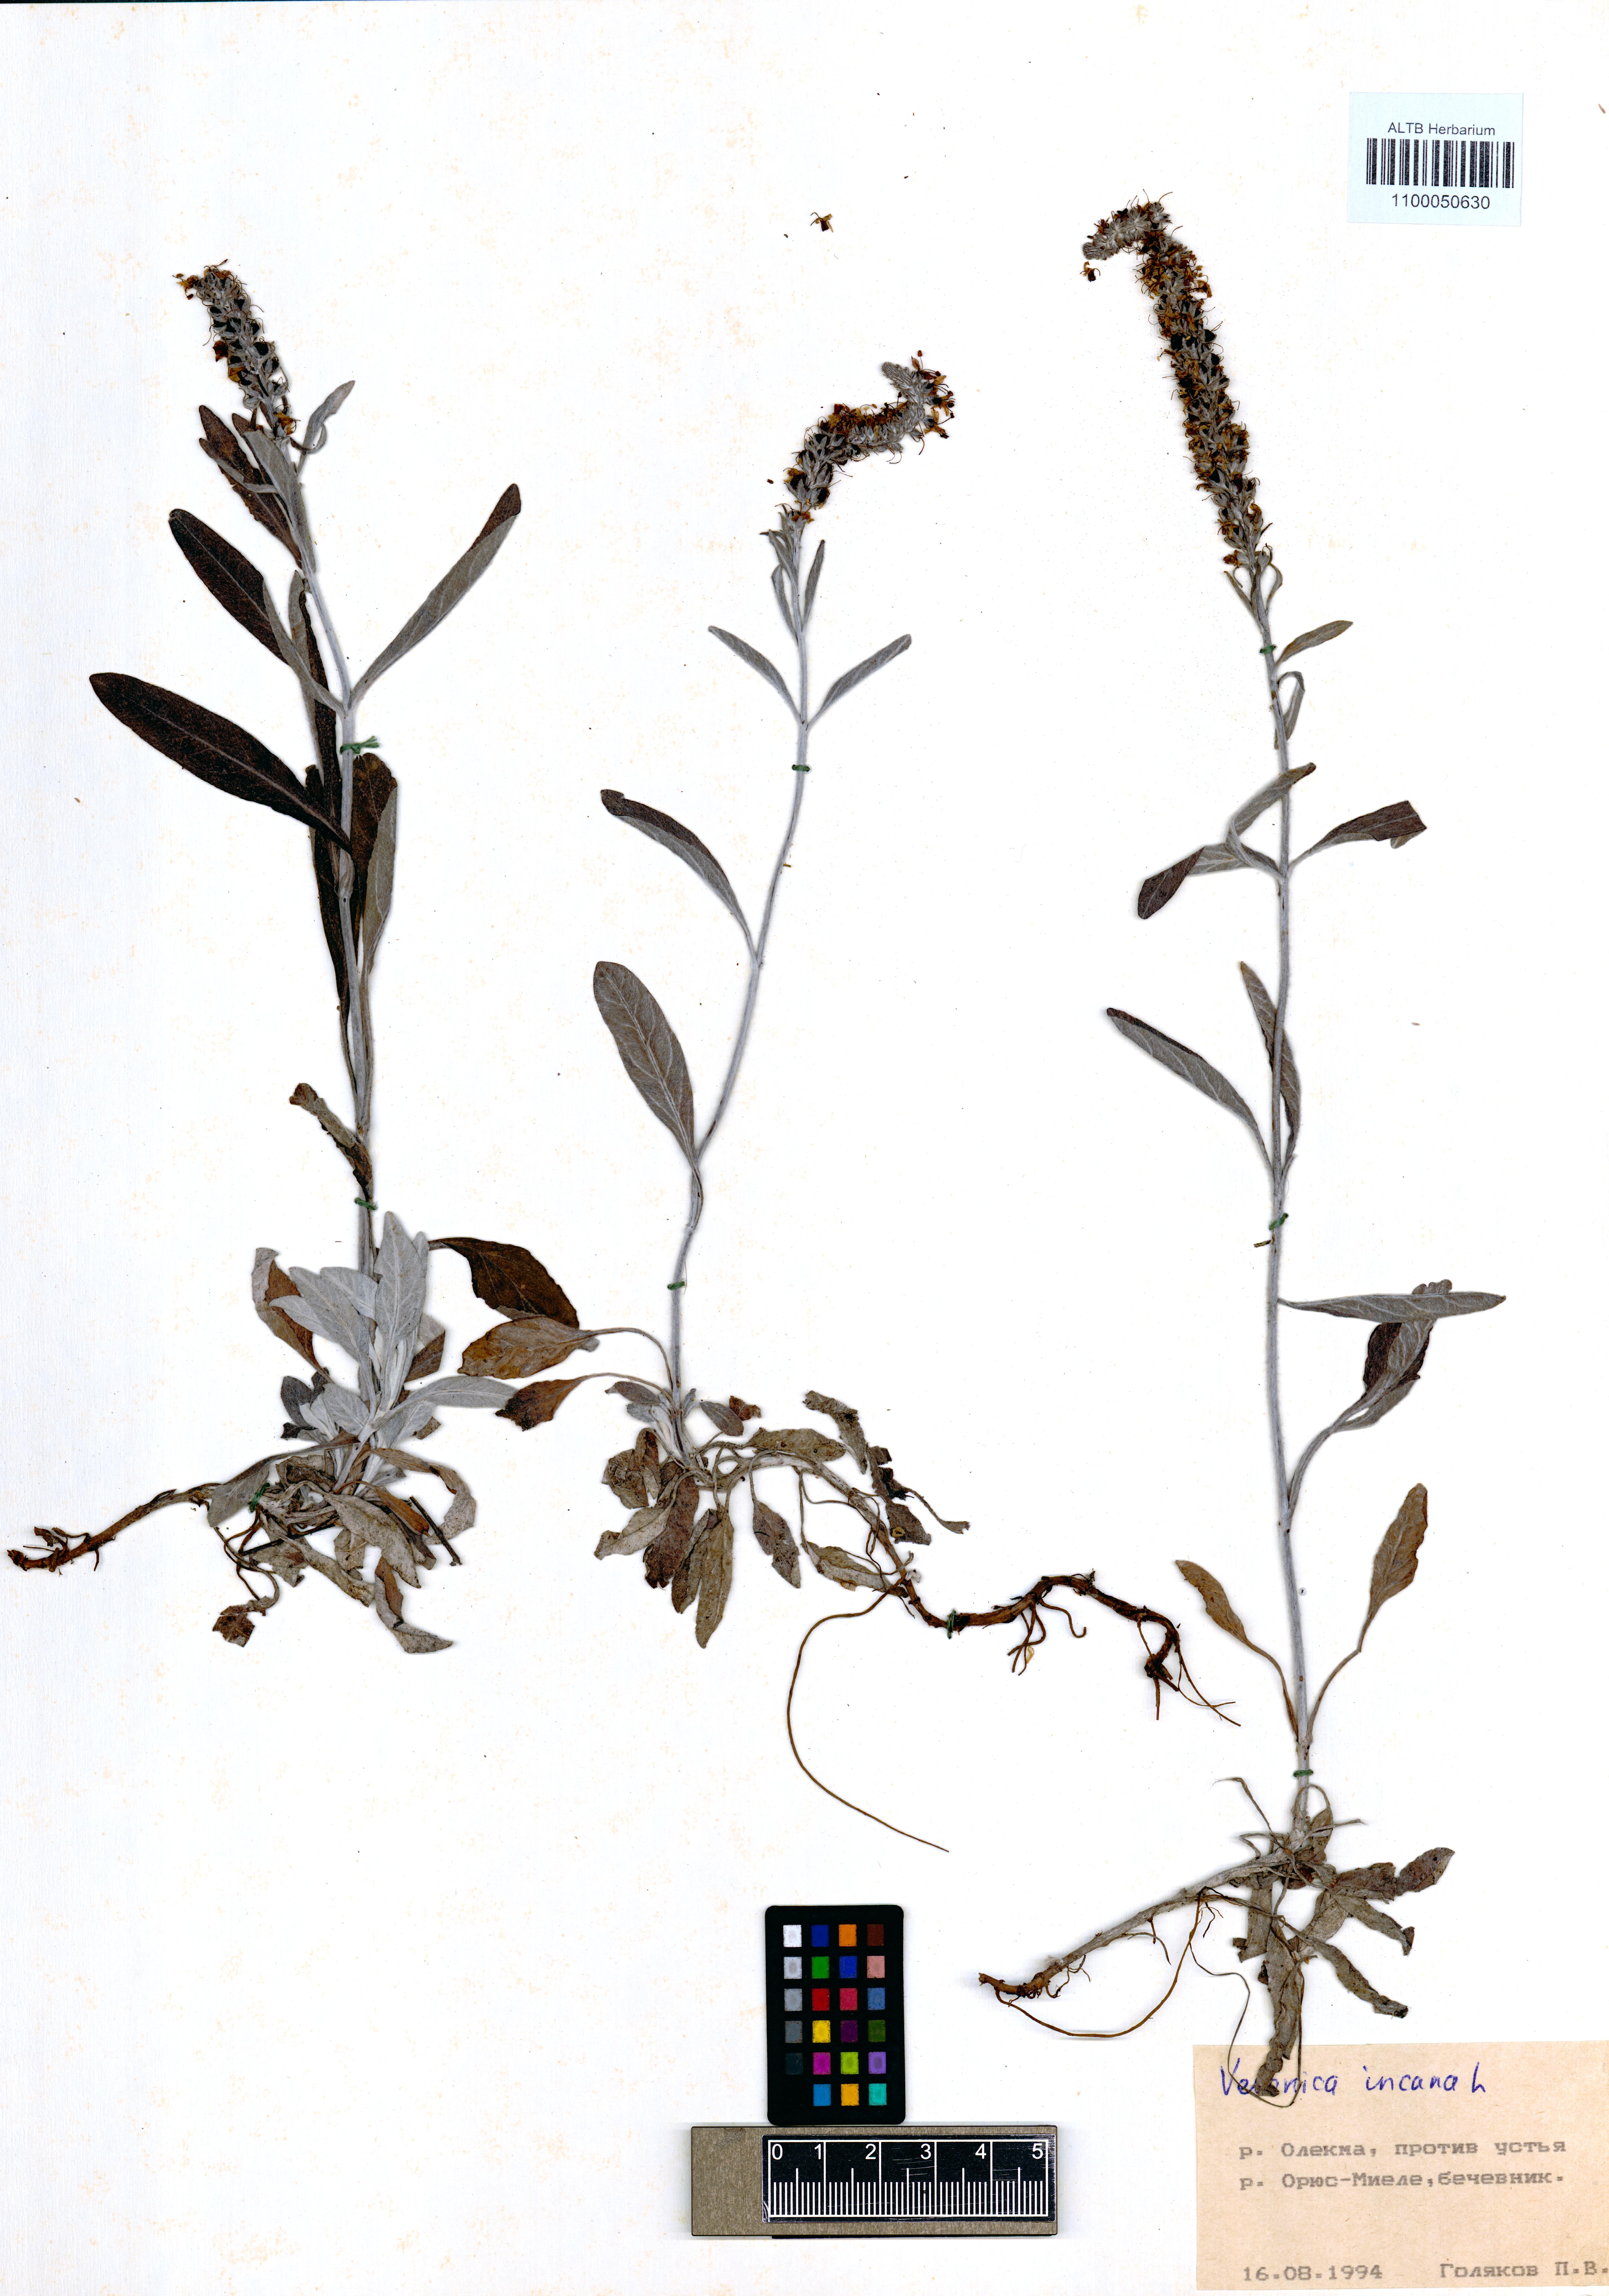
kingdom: Plantae
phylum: Tracheophyta
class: Magnoliopsida
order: Lamiales
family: Plantaginaceae
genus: Veronica
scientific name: Veronica incana
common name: Silver speedwell
